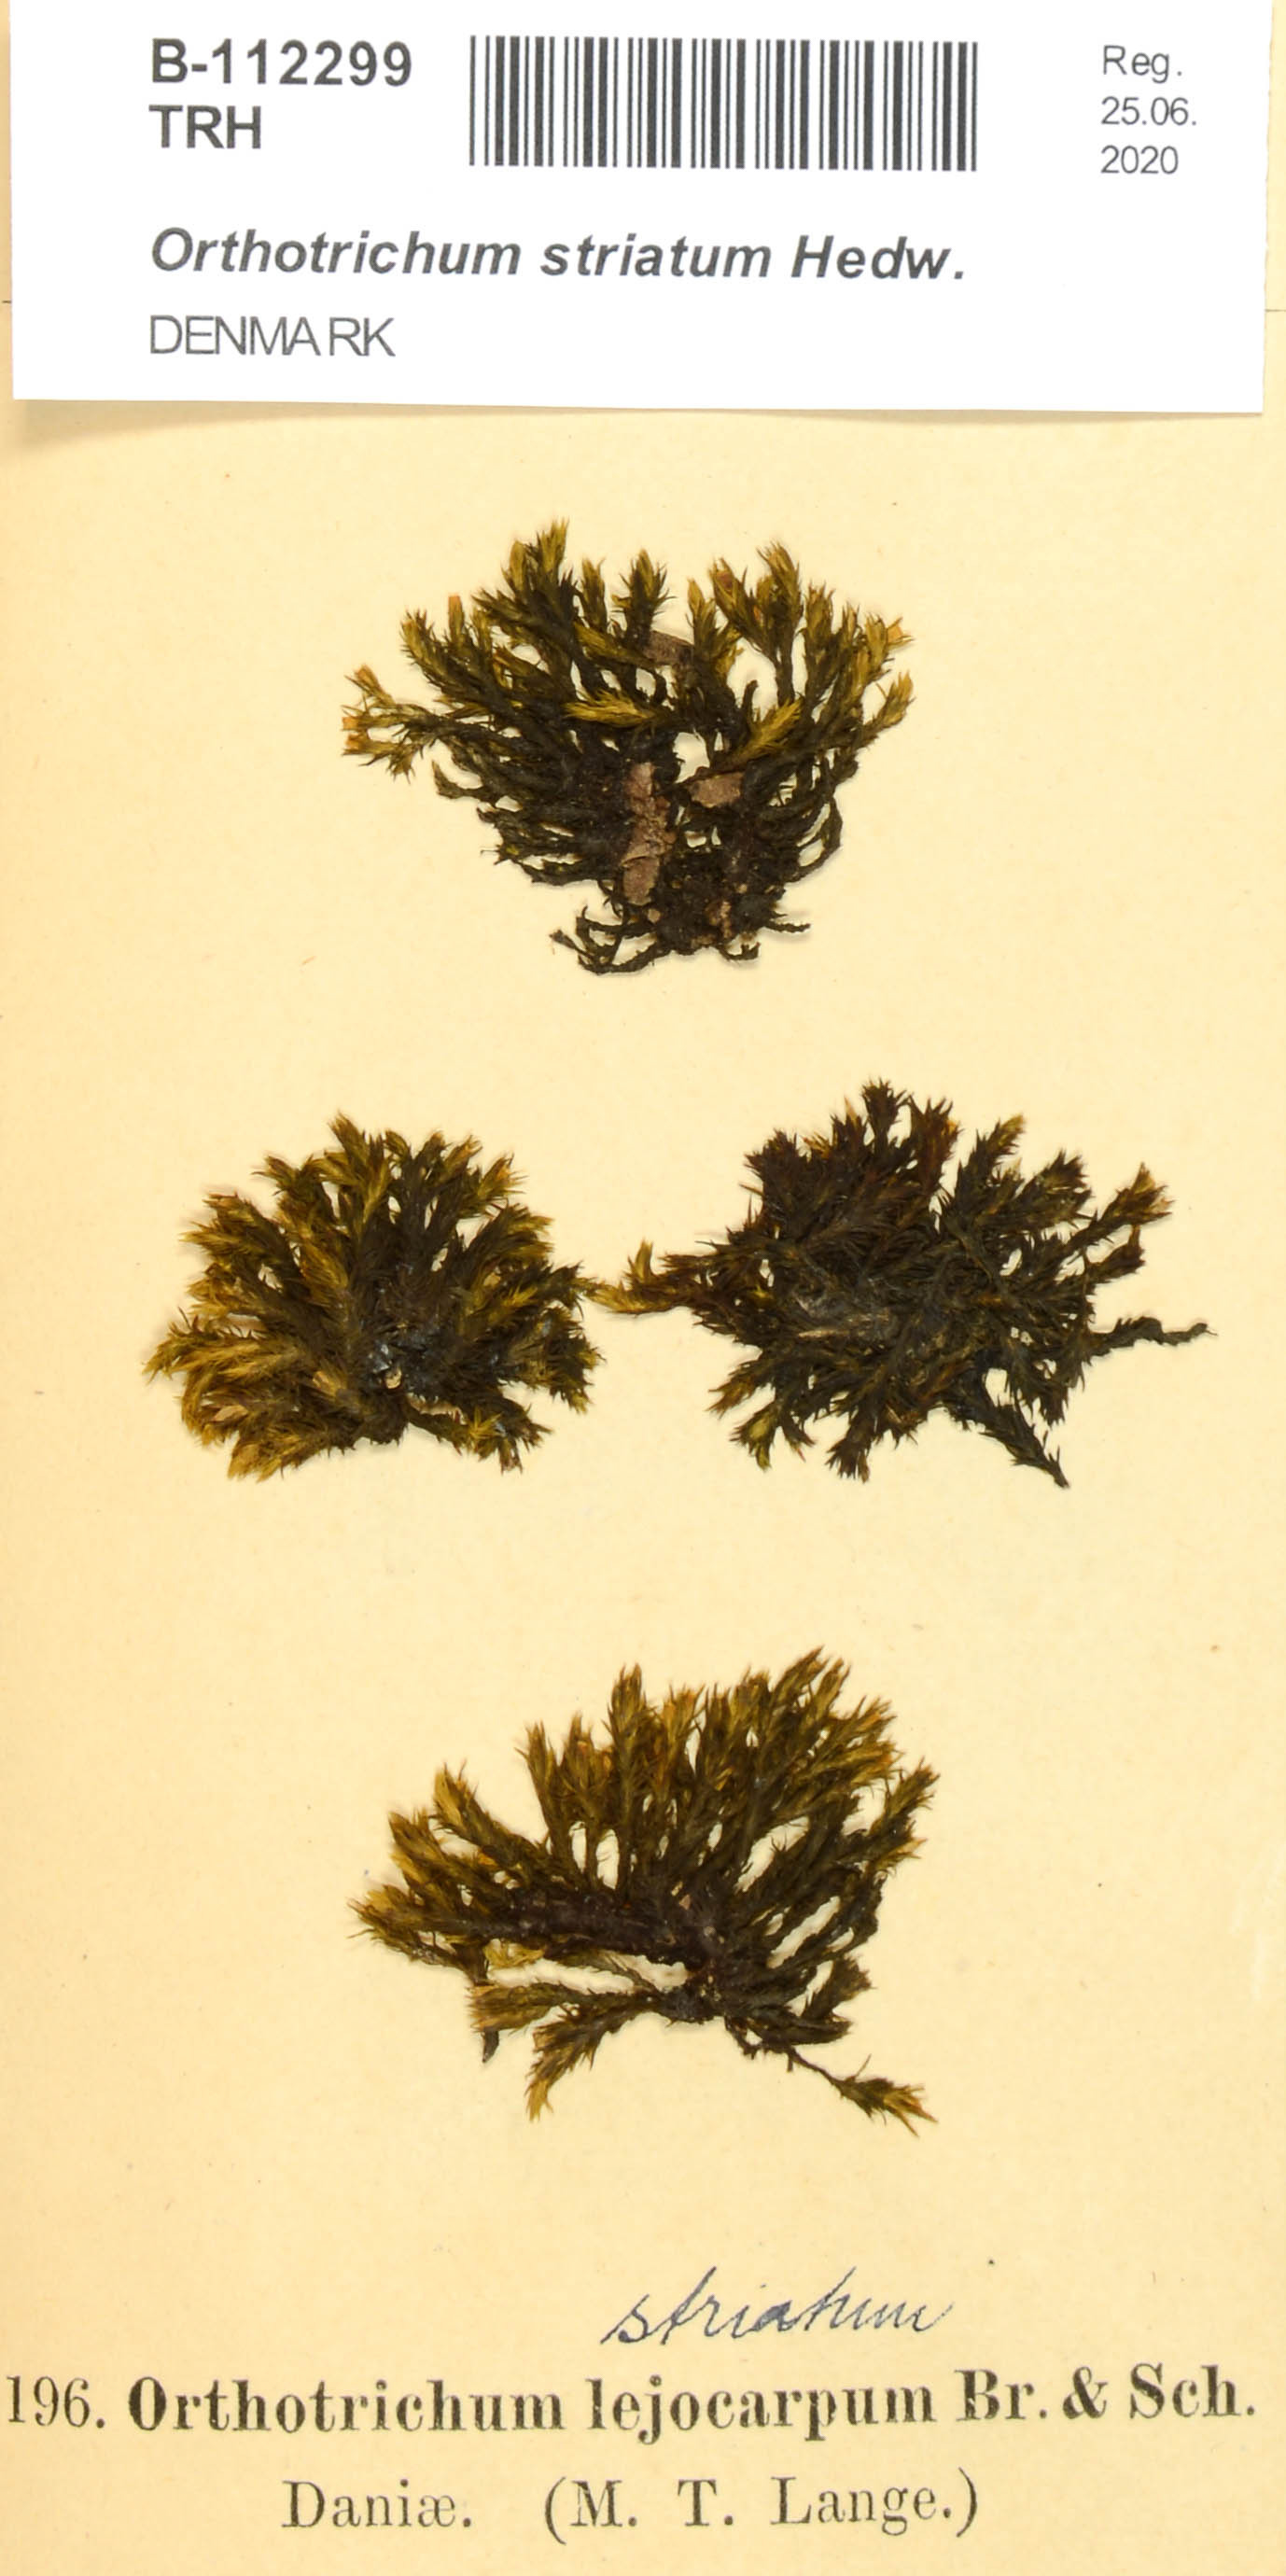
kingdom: Plantae
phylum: Bryophyta
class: Bryopsida
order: Orthotrichales
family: Orthotrichaceae
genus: Lewinskya
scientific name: Lewinskya striata
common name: Shaw's bristle-moss
